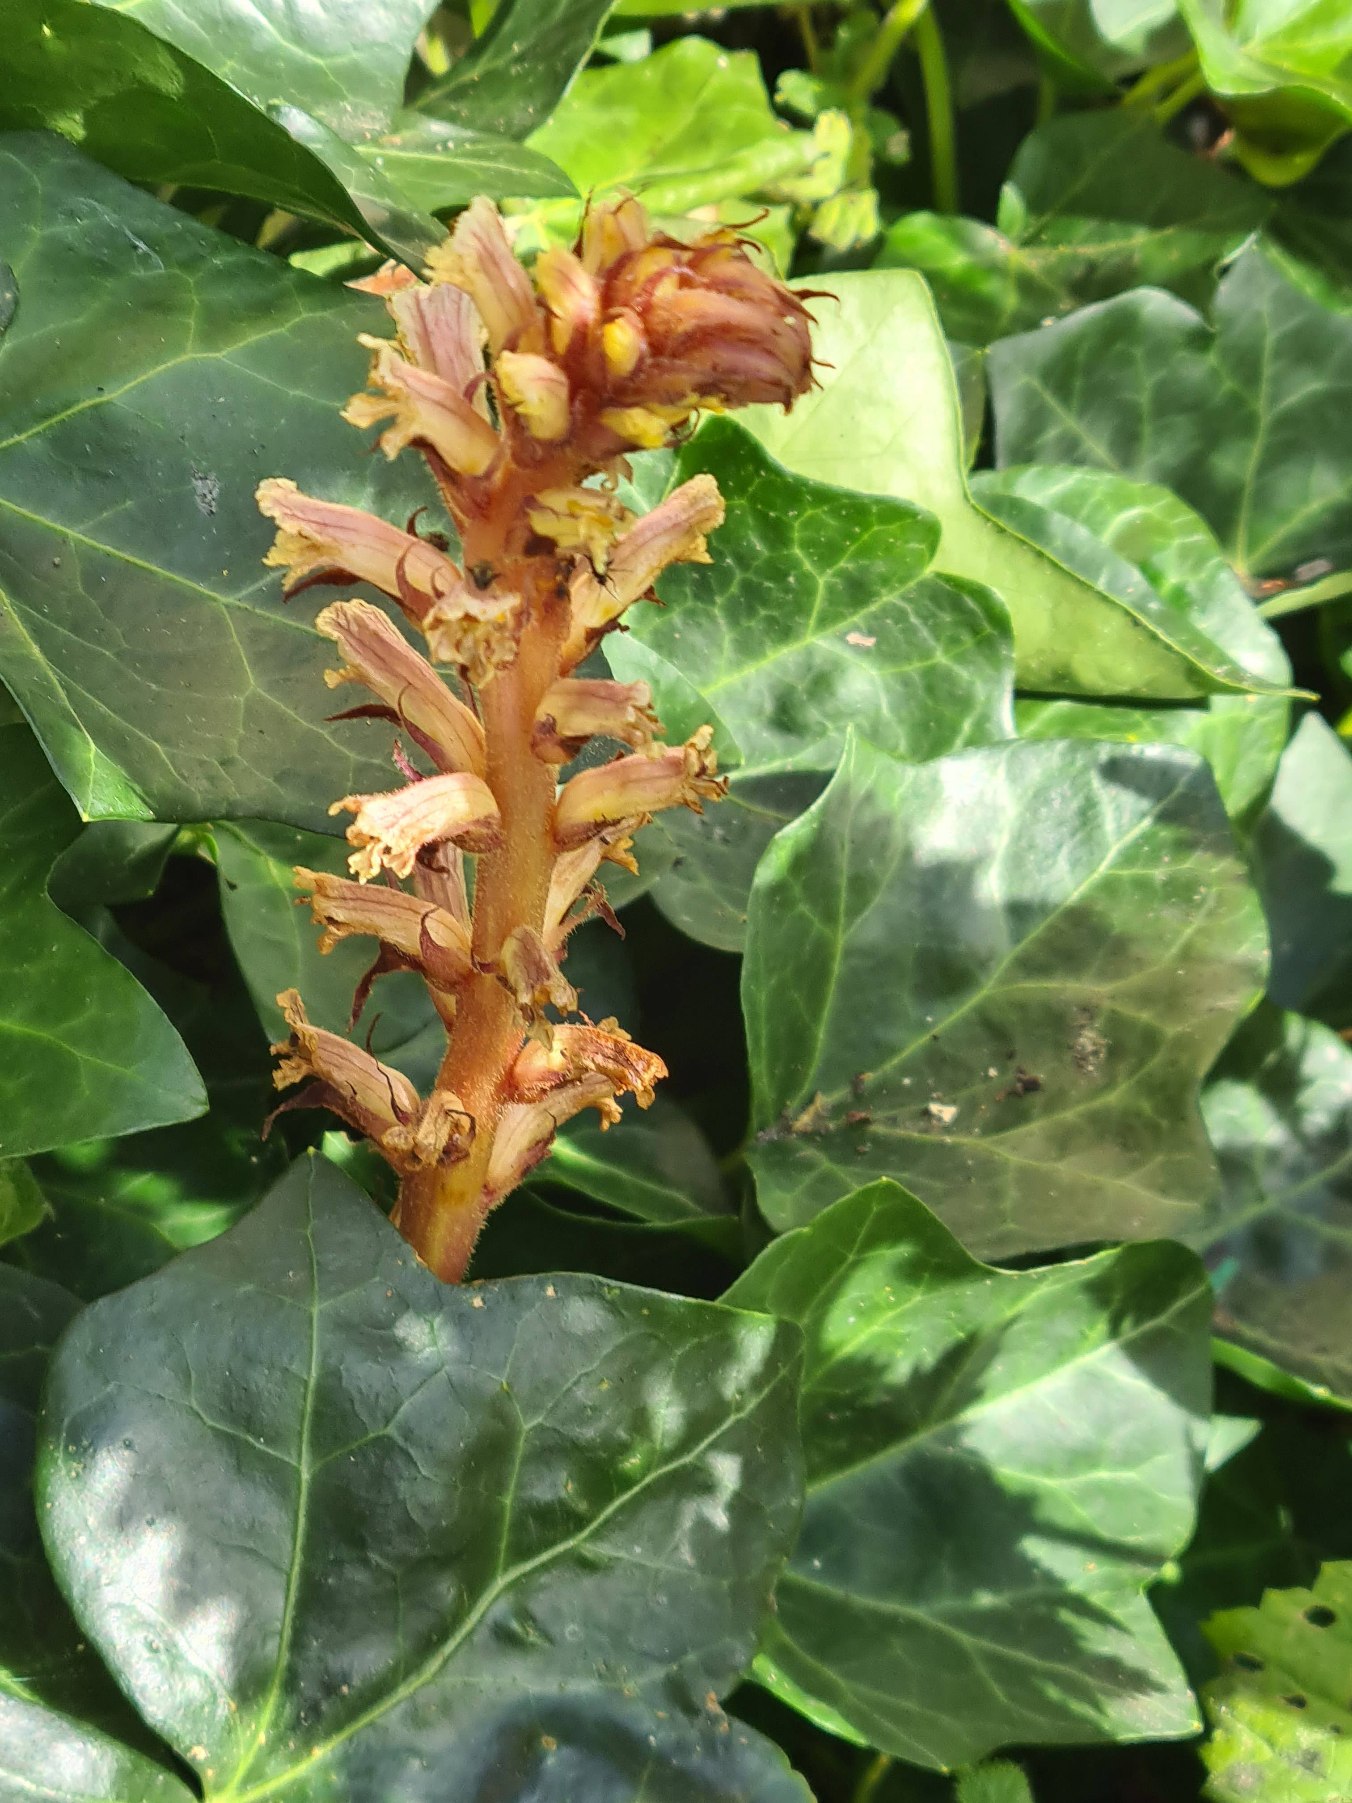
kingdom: Plantae
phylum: Tracheophyta
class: Magnoliopsida
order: Lamiales
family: Orobanchaceae
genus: Orobanche
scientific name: Orobanche hederae
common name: Vedbend-gyvelkvæler
